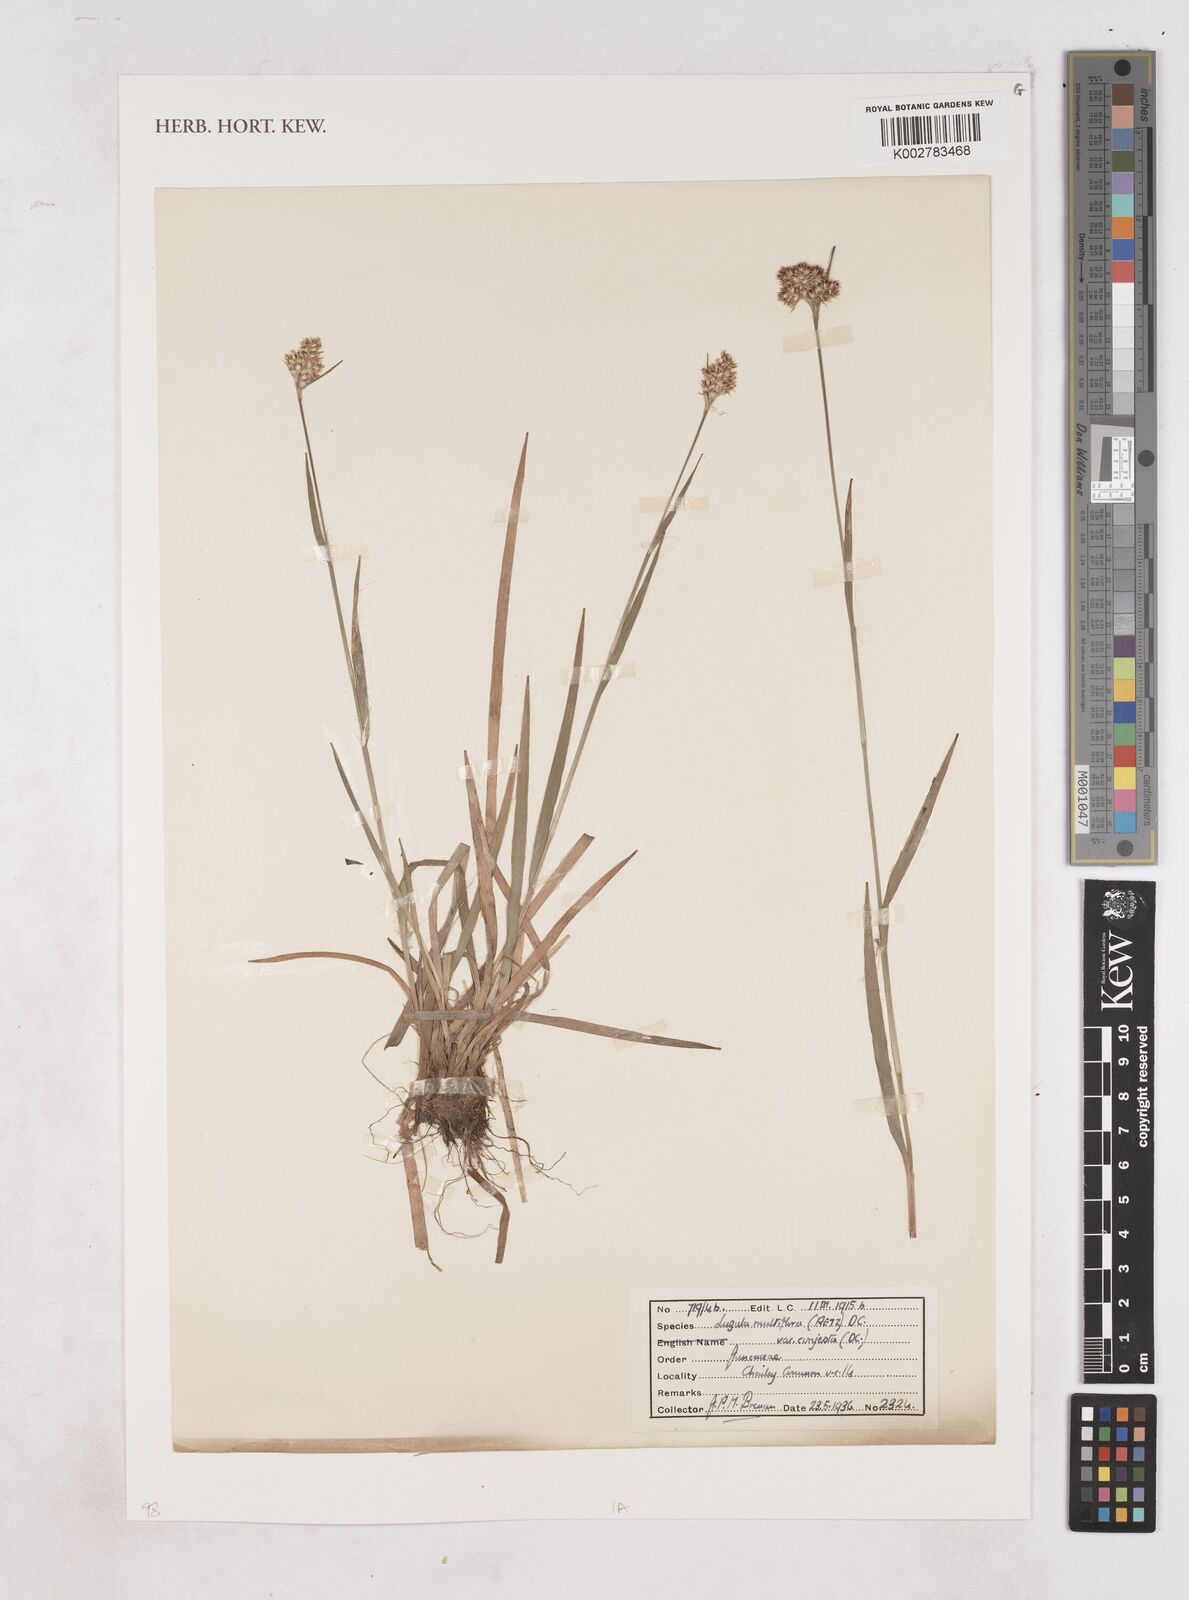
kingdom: Plantae
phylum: Tracheophyta
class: Liliopsida
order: Poales
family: Juncaceae
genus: Luzula
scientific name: Luzula multiflora
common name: Heath wood-rush
